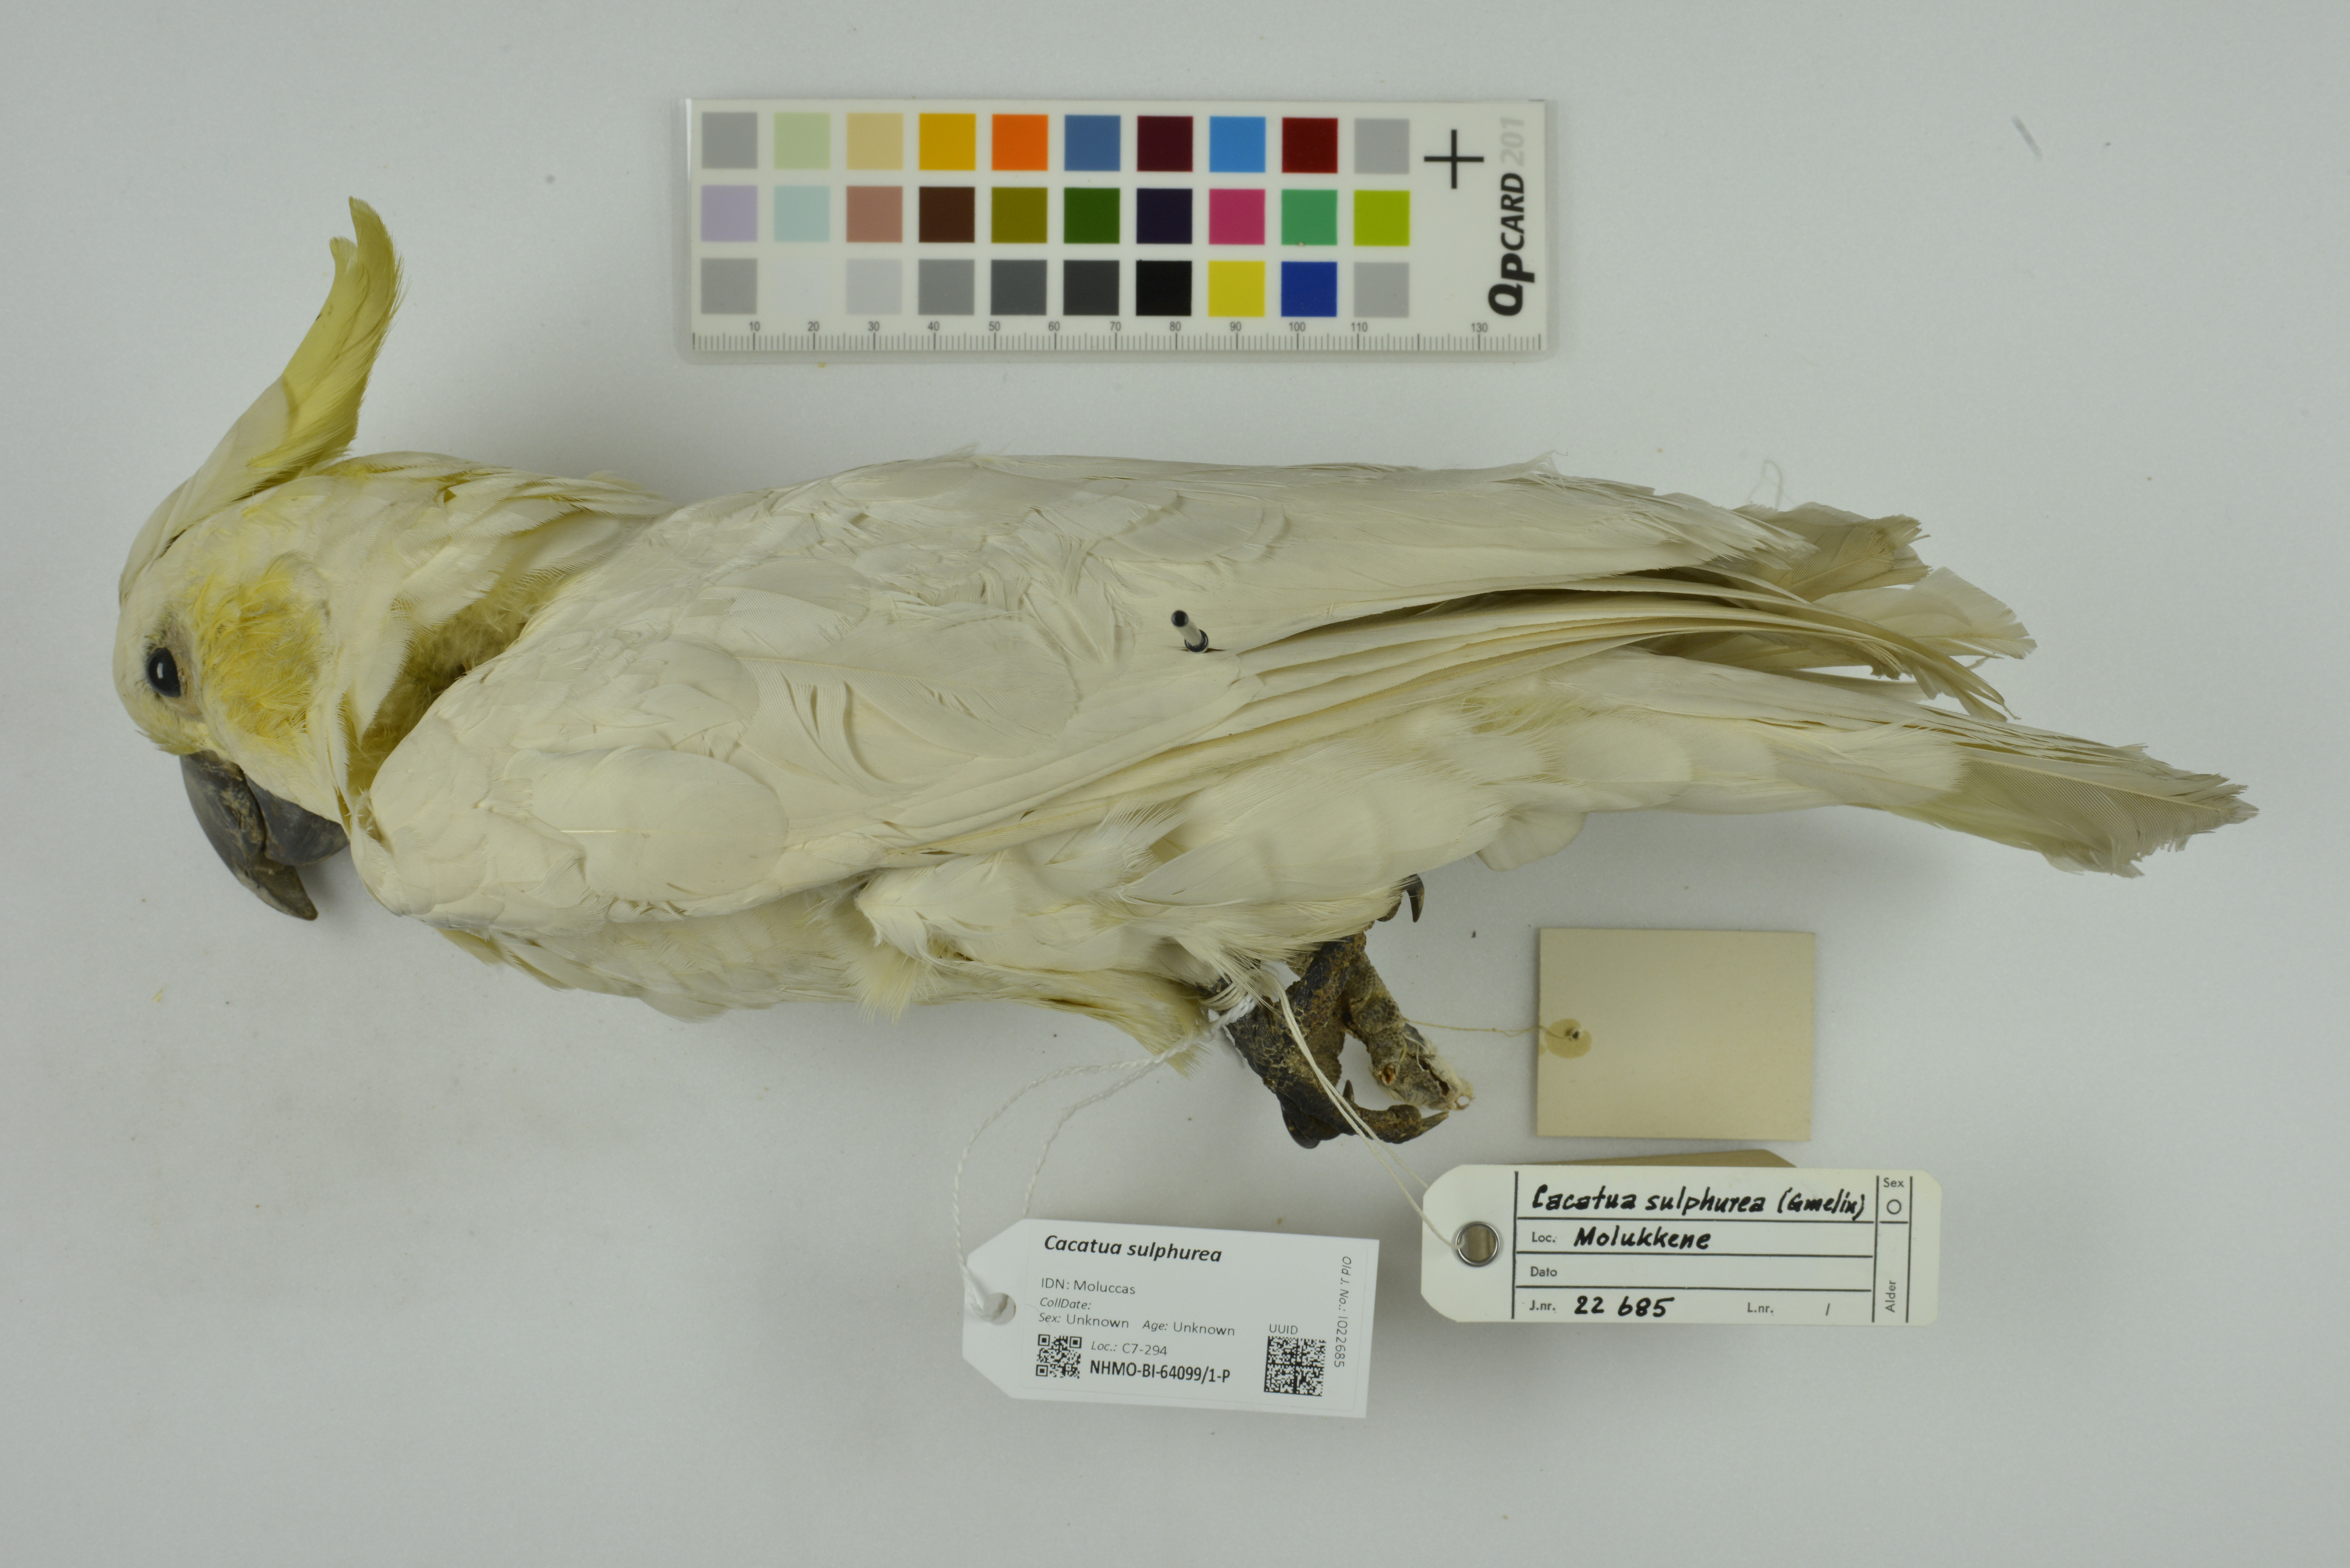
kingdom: Animalia
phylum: Chordata
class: Aves
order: Psittaciformes
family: Psittacidae
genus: Cacatua
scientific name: Cacatua sulphurea
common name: Yellow-crested cockatoo
